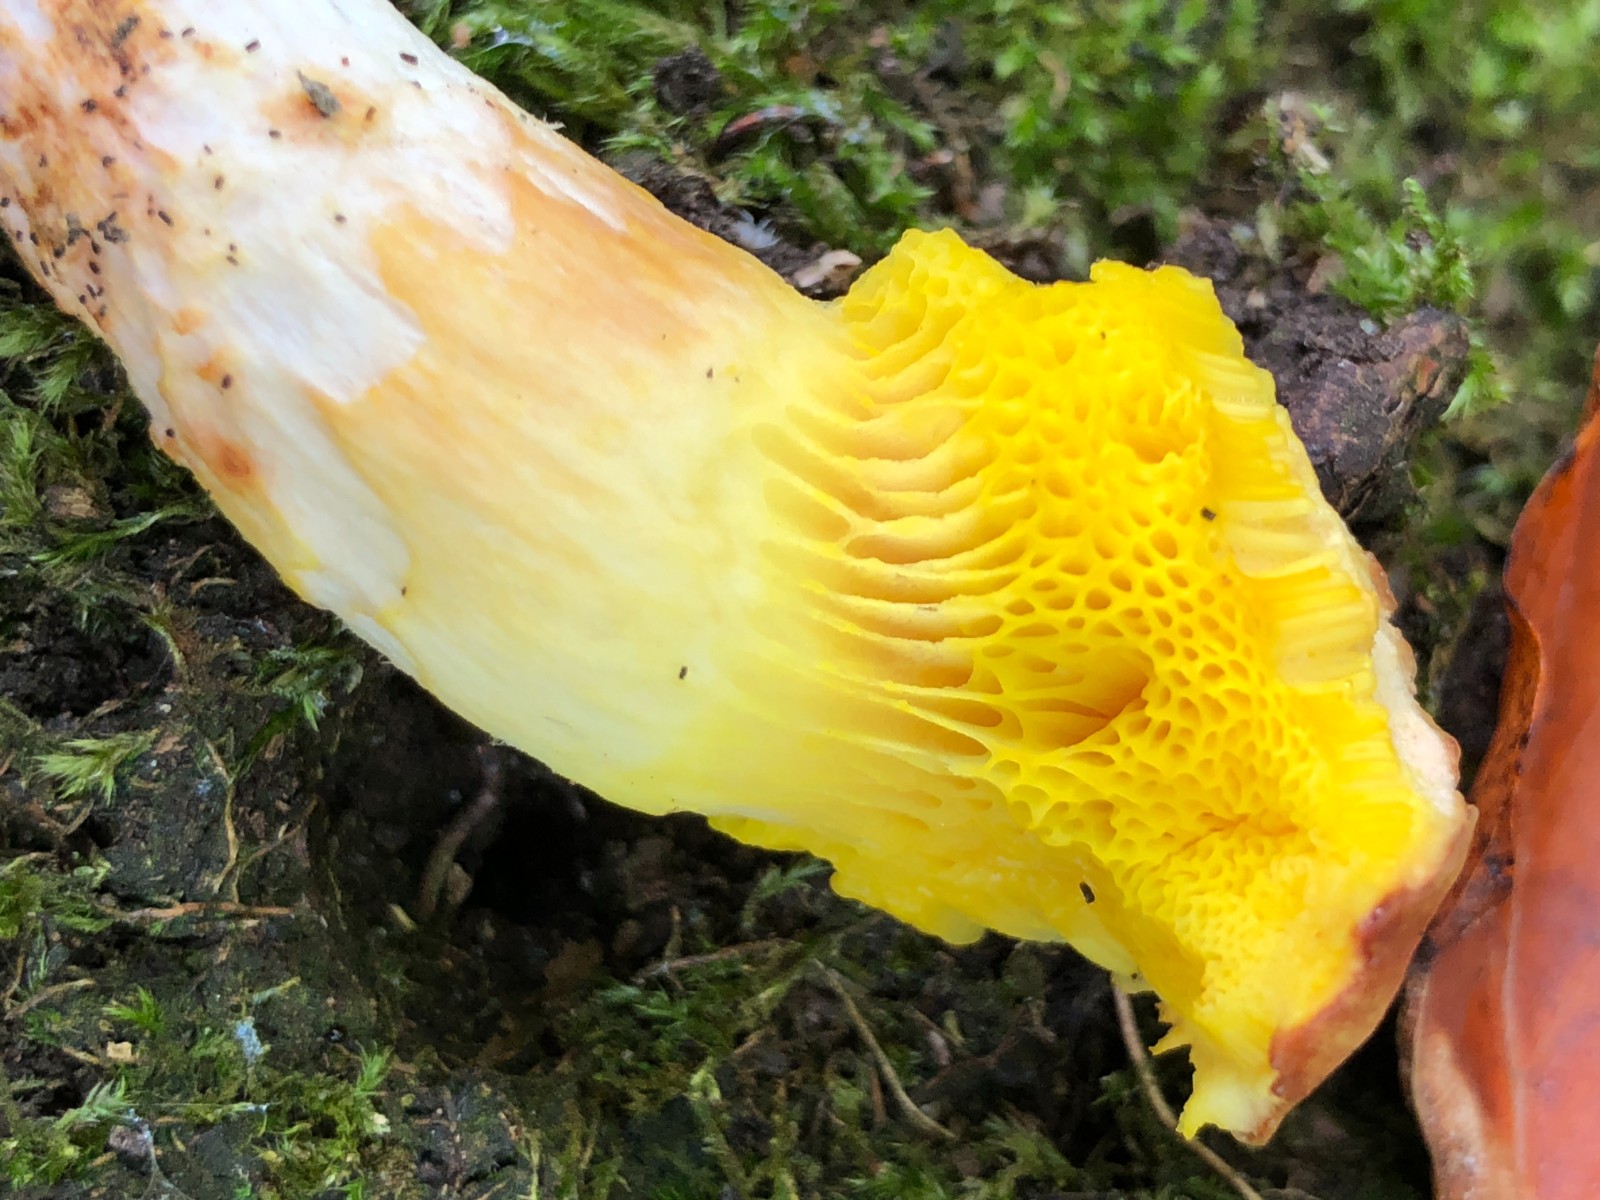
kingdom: Fungi
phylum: Basidiomycota
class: Agaricomycetes
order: Boletales
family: Boletaceae
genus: Aureoboletus
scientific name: Aureoboletus gentilis
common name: guldrørhat
